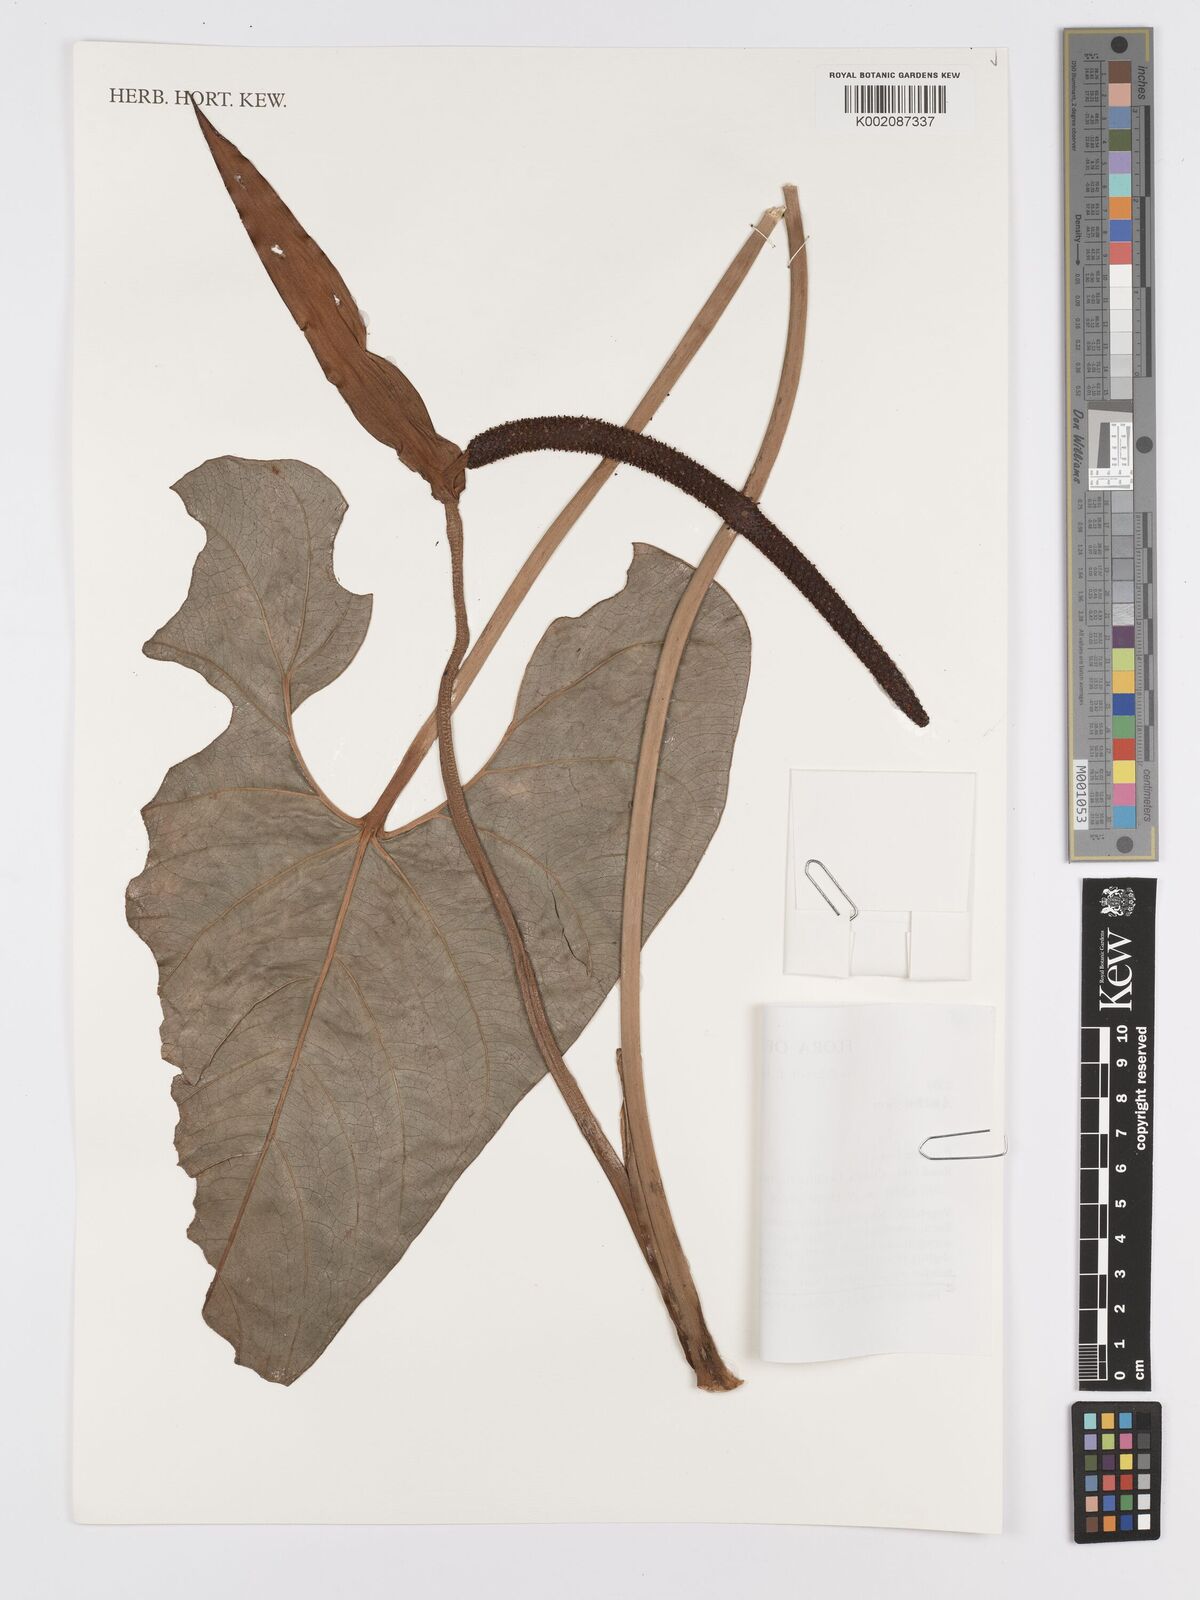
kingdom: Plantae
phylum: Tracheophyta
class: Liliopsida
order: Alismatales
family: Araceae
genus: Anthurium
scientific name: Anthurium
